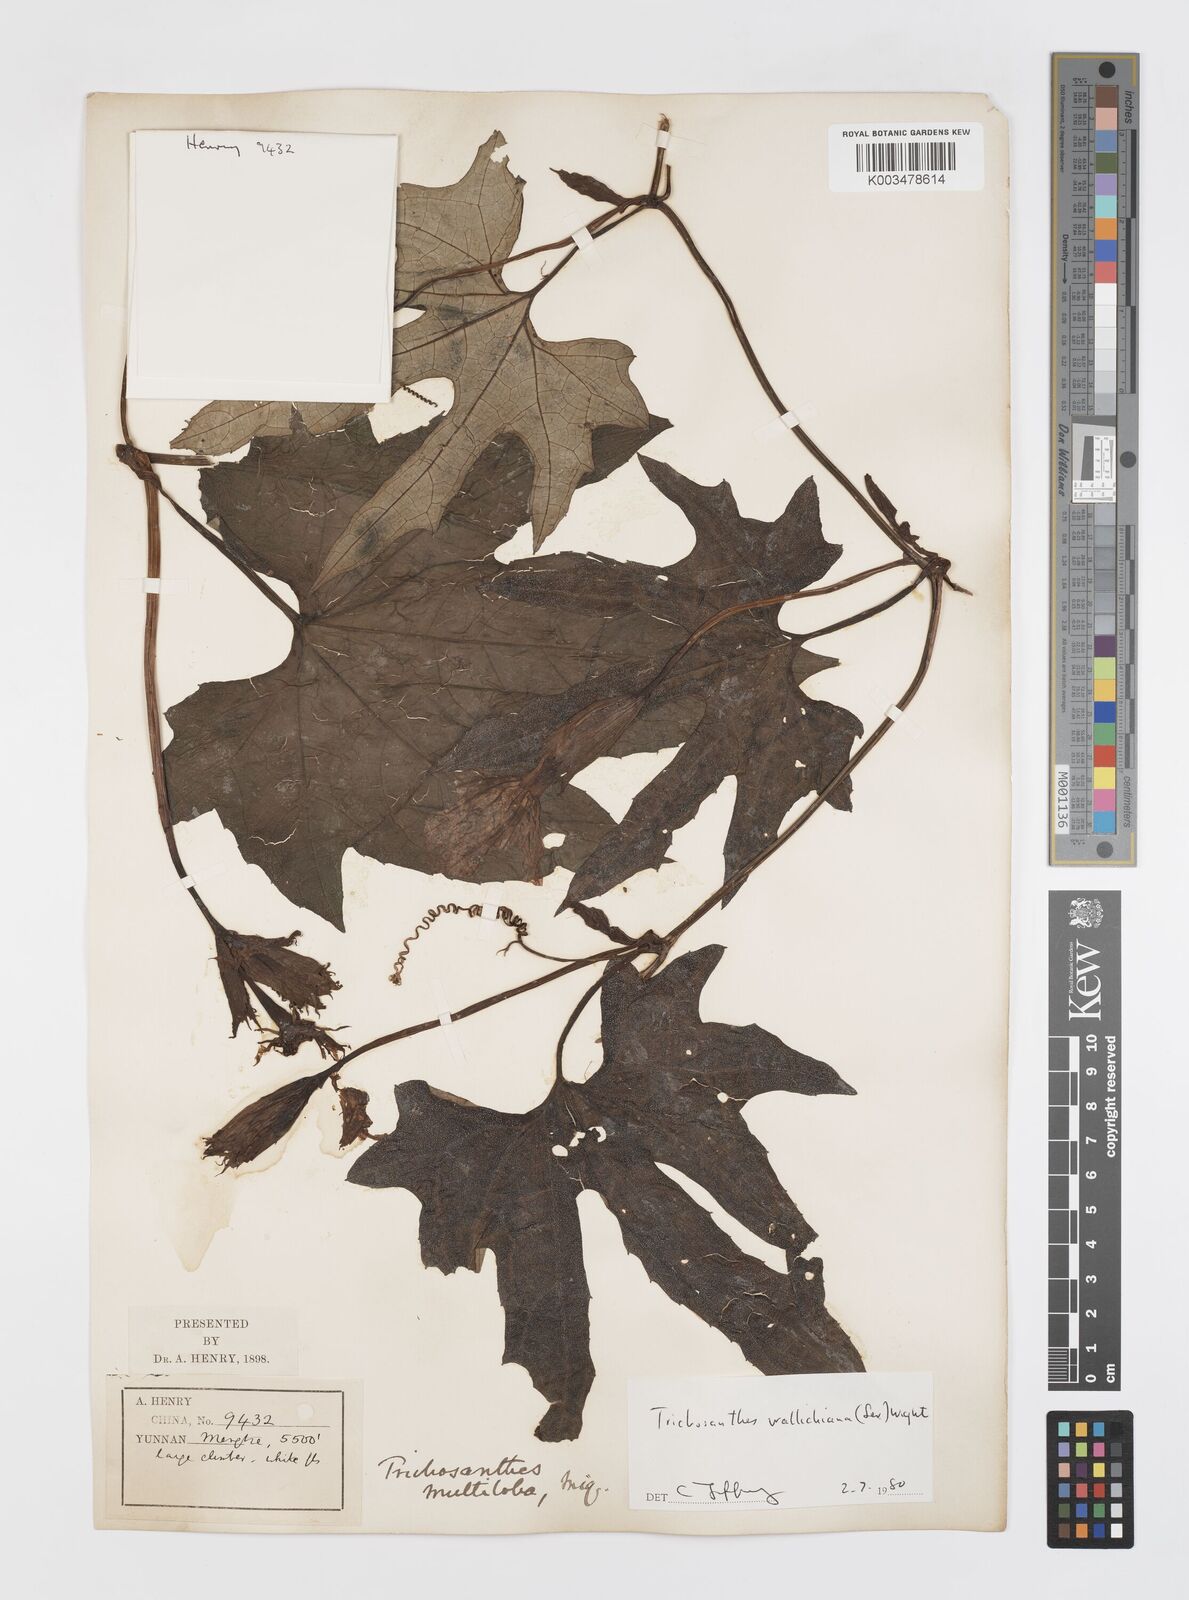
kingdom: Plantae
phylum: Tracheophyta
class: Magnoliopsida
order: Cucurbitales
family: Cucurbitaceae
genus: Trichosanthes
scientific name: Trichosanthes wallichiana
